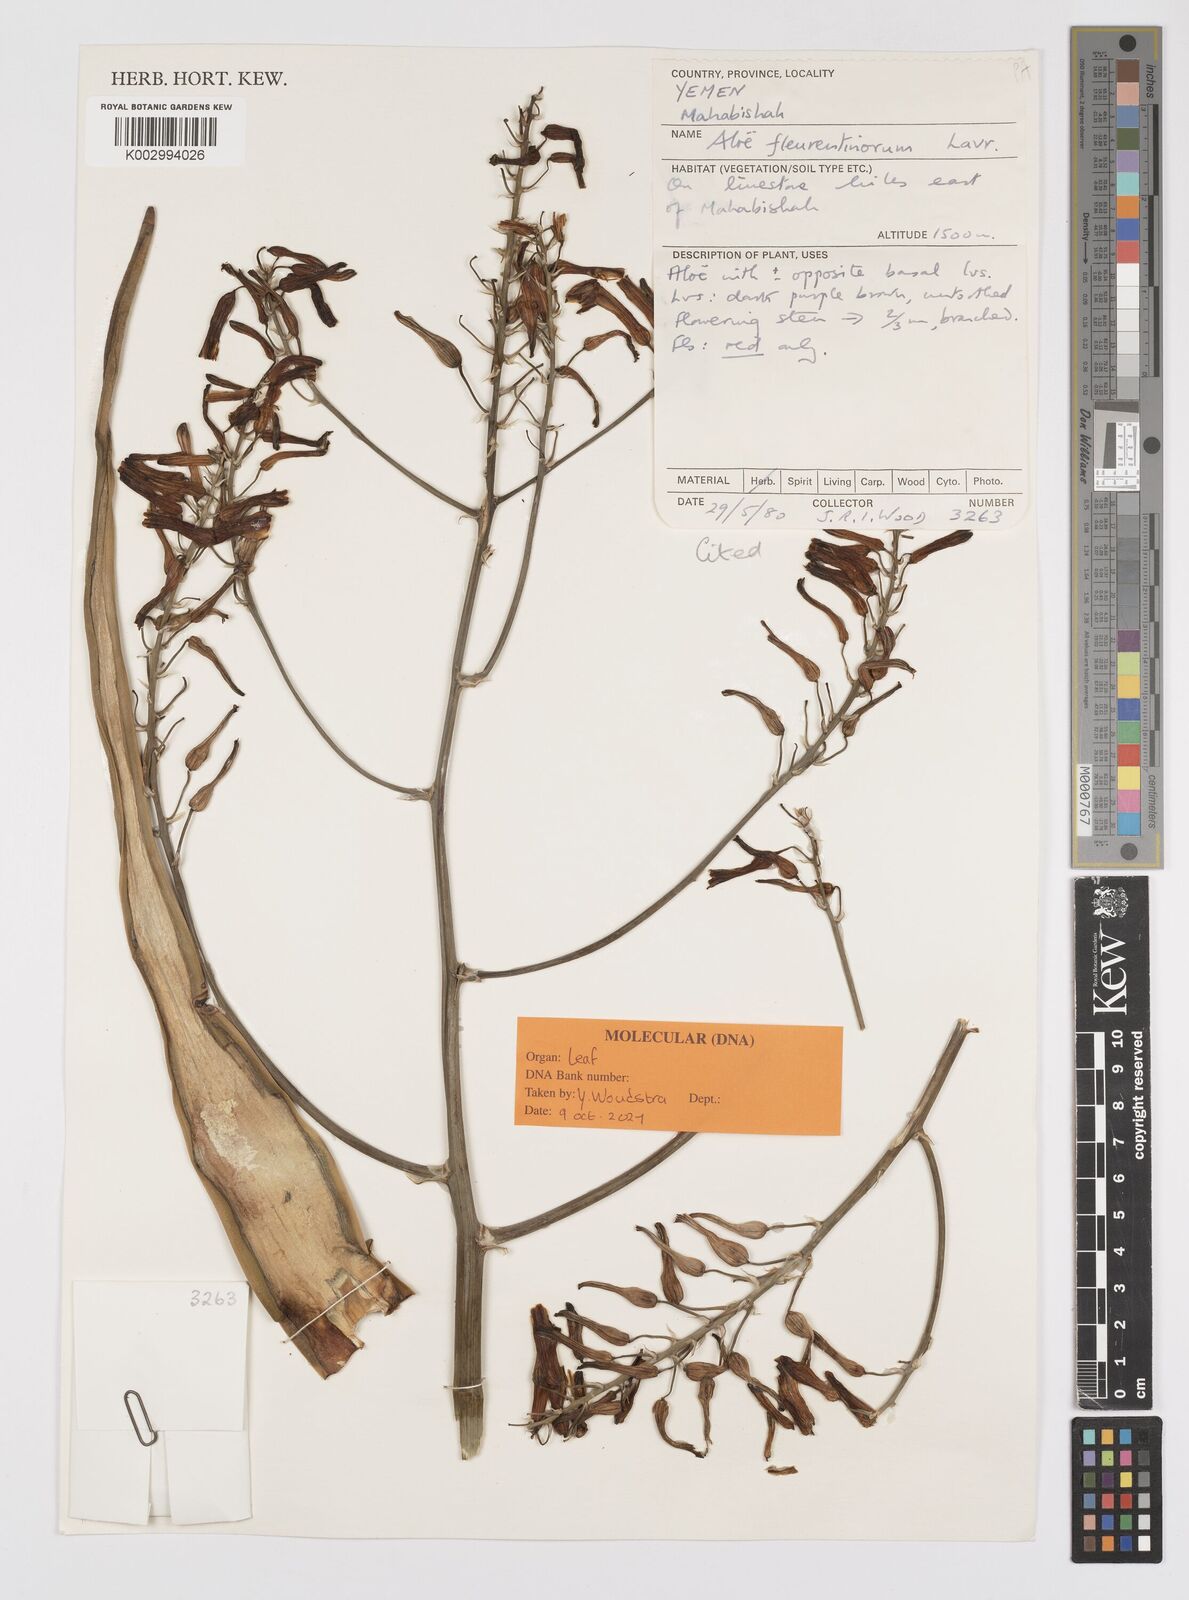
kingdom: Plantae
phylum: Tracheophyta
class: Liliopsida
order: Asparagales
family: Asphodelaceae
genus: Aloe
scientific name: Aloe fleurentiniorum
